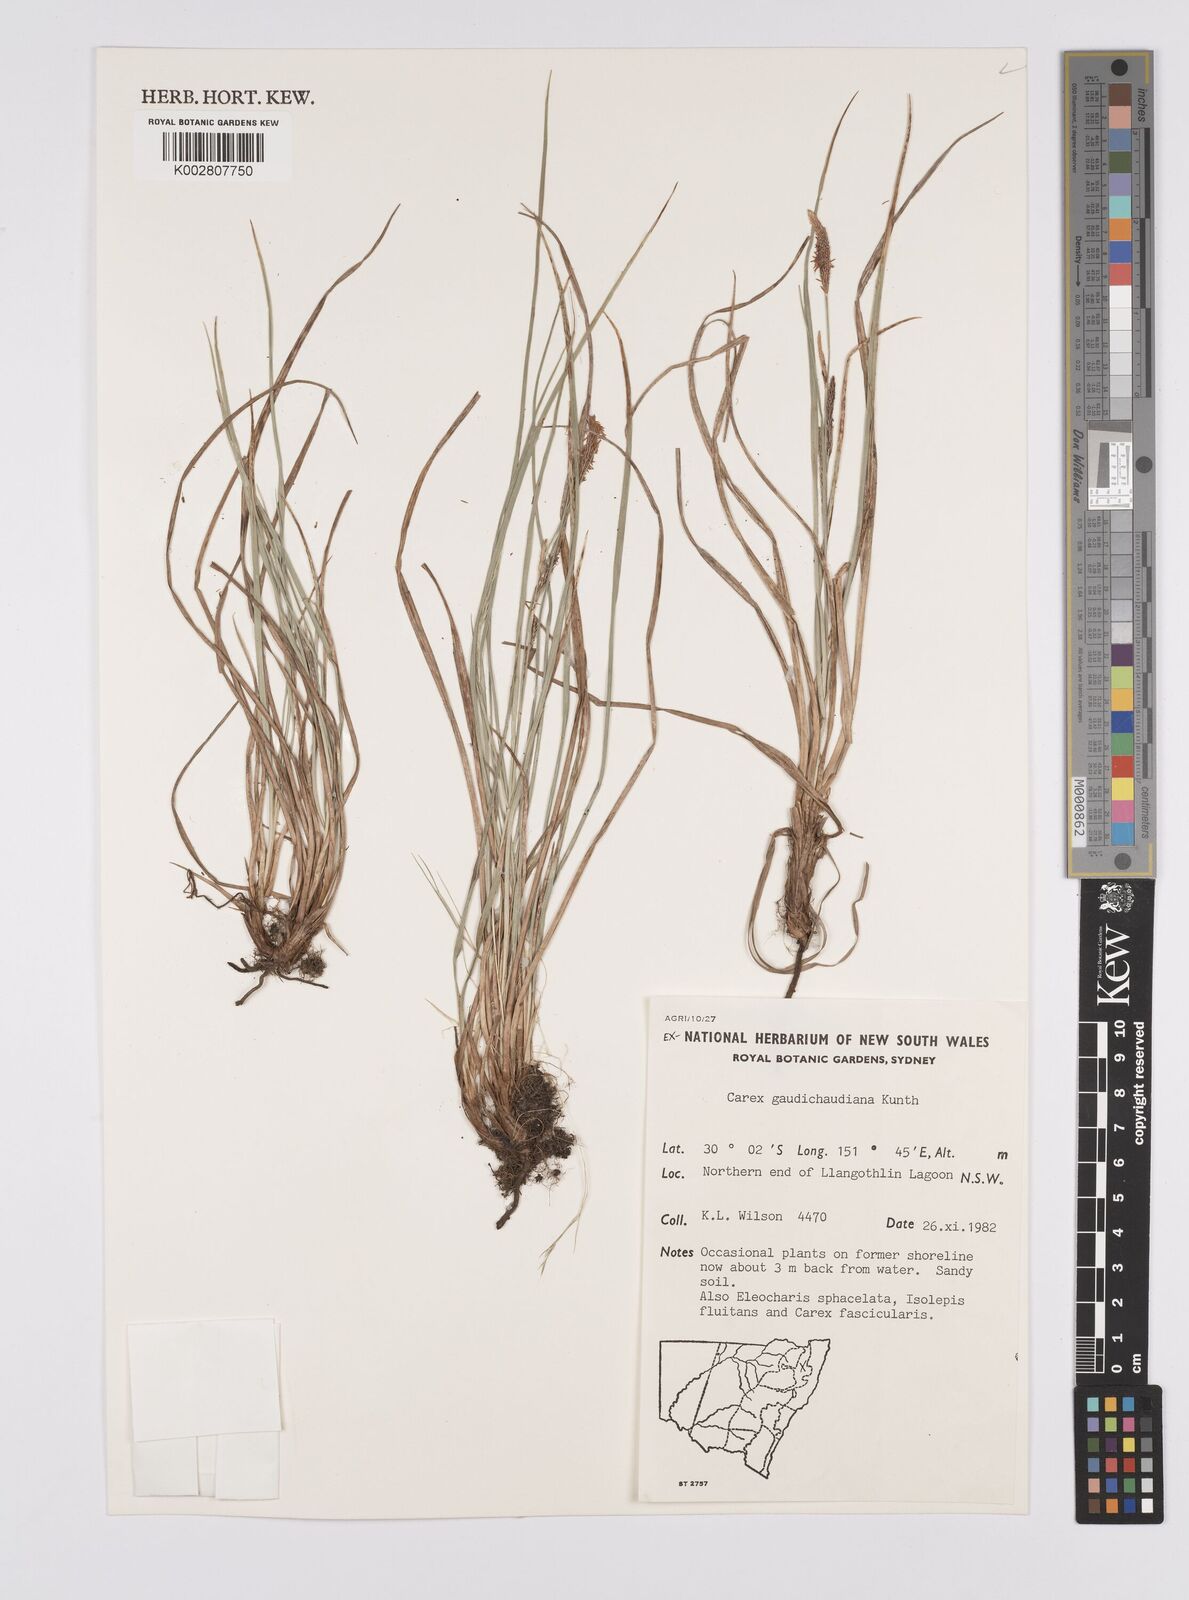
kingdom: Plantae
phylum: Tracheophyta
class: Liliopsida
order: Poales
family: Cyperaceae
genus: Carex
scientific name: Carex gaudichaudiana
